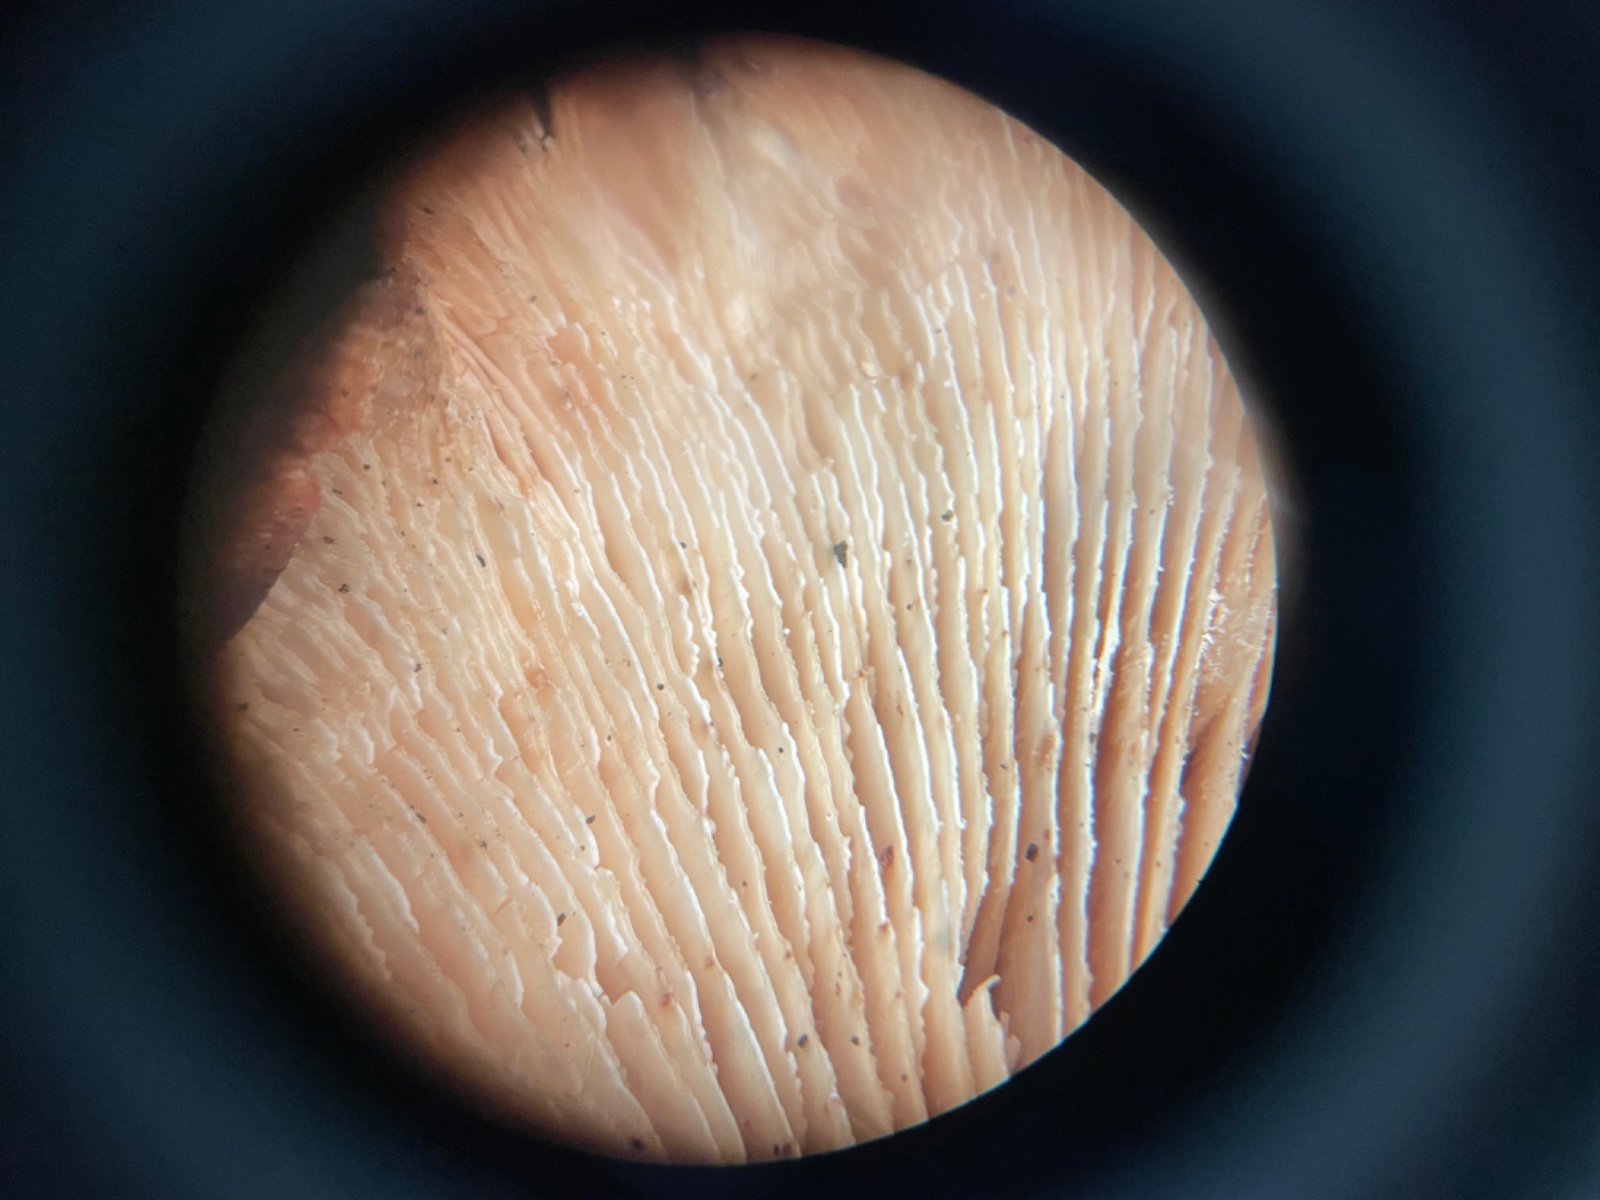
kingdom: Fungi
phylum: Basidiomycota
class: Agaricomycetes
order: Russulales
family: Auriscalpiaceae
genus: Lentinellus
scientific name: Lentinellus ursinus
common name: børstehåret savbladhat
